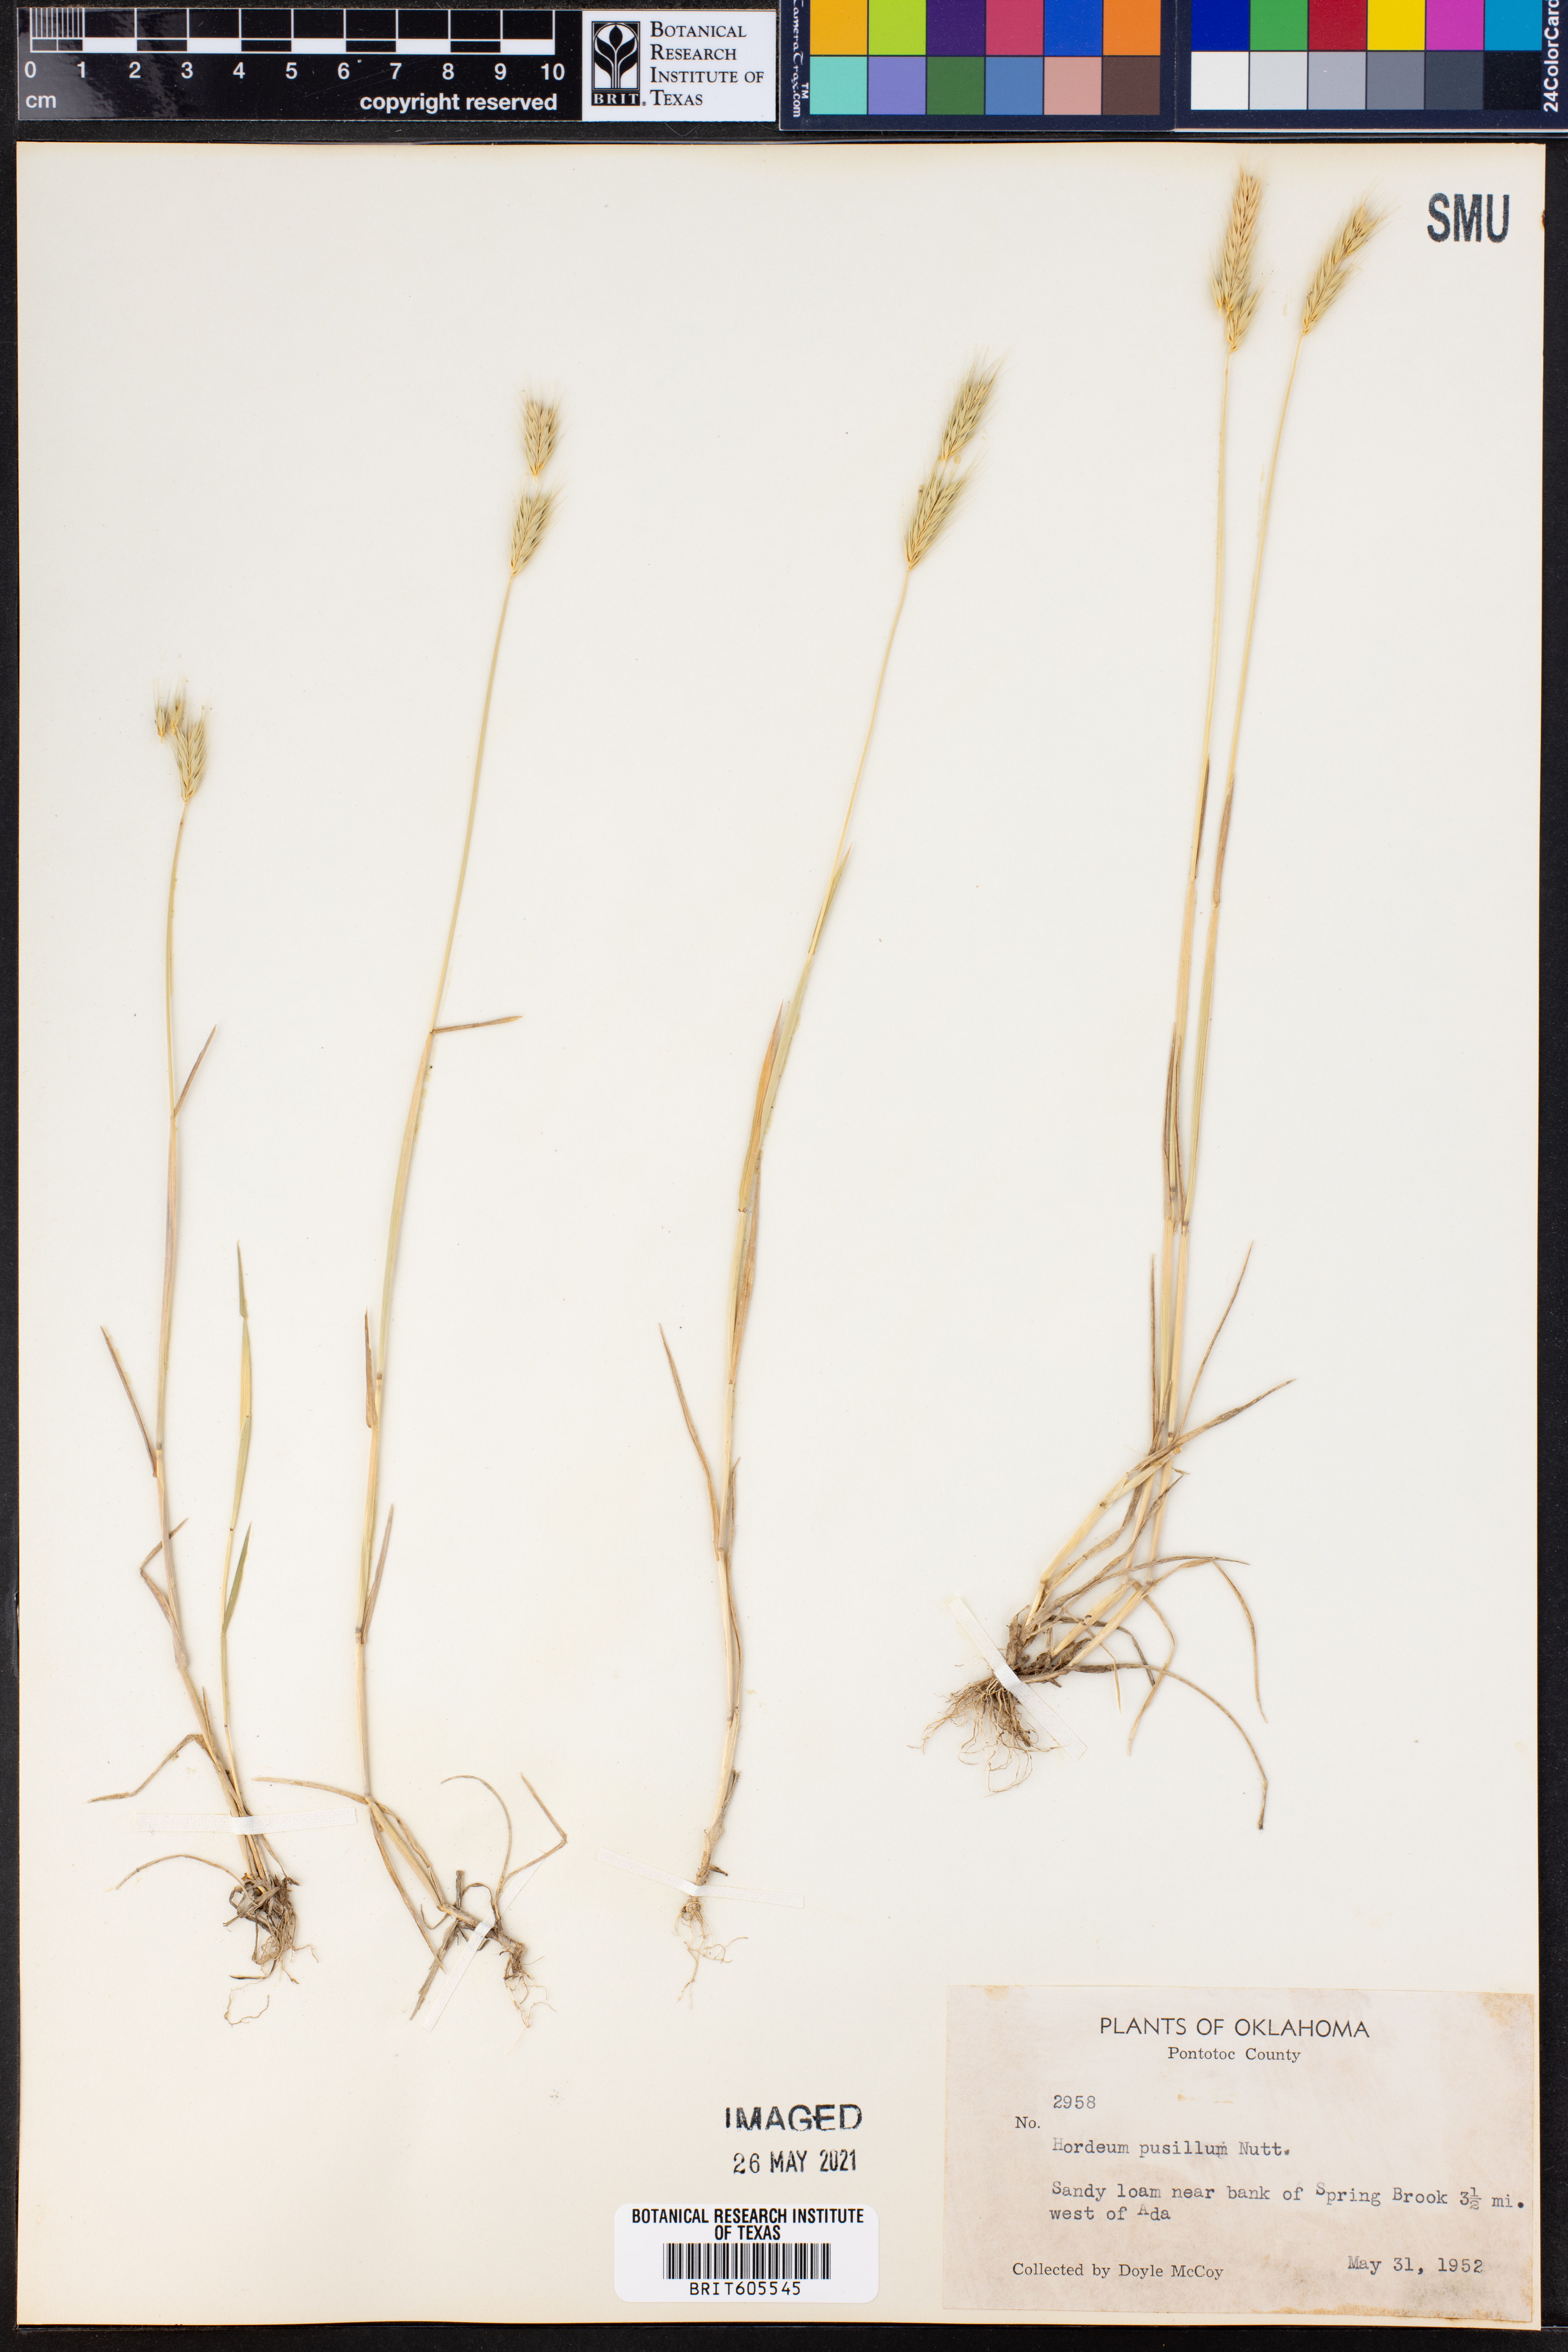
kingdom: Plantae
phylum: Tracheophyta
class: Liliopsida
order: Poales
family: Poaceae
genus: Hordeum
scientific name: Hordeum pusillum
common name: Little barley
